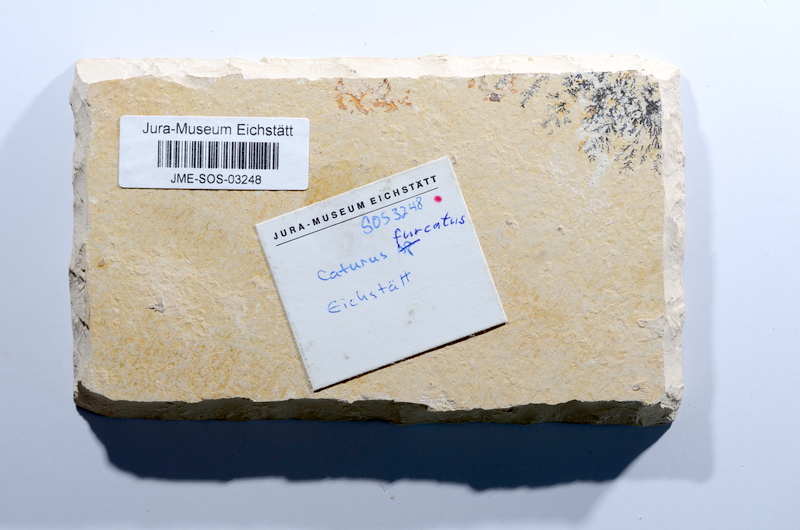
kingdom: Animalia
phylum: Chordata
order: Amiiformes
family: Caturidae
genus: Caturus
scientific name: Caturus furcatus
